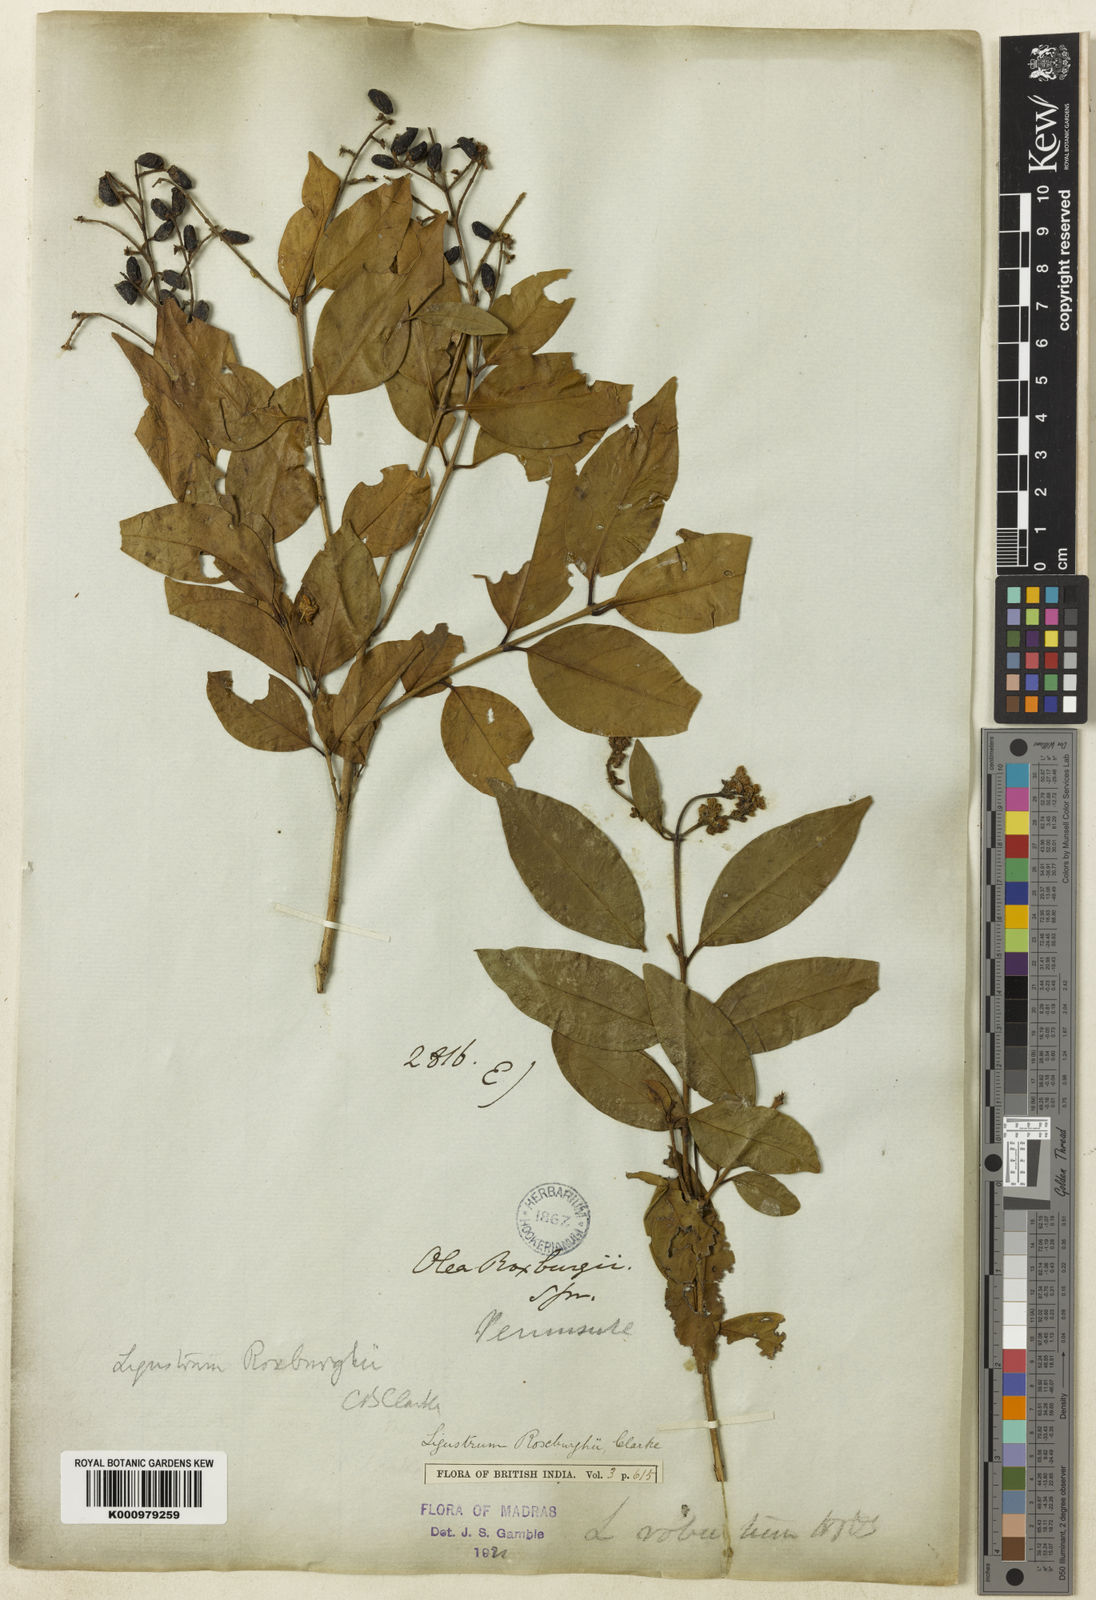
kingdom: Plantae
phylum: Tracheophyta
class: Magnoliopsida
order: Lamiales
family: Oleaceae
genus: Ligustrum
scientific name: Ligustrum robustum
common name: Tree privet
